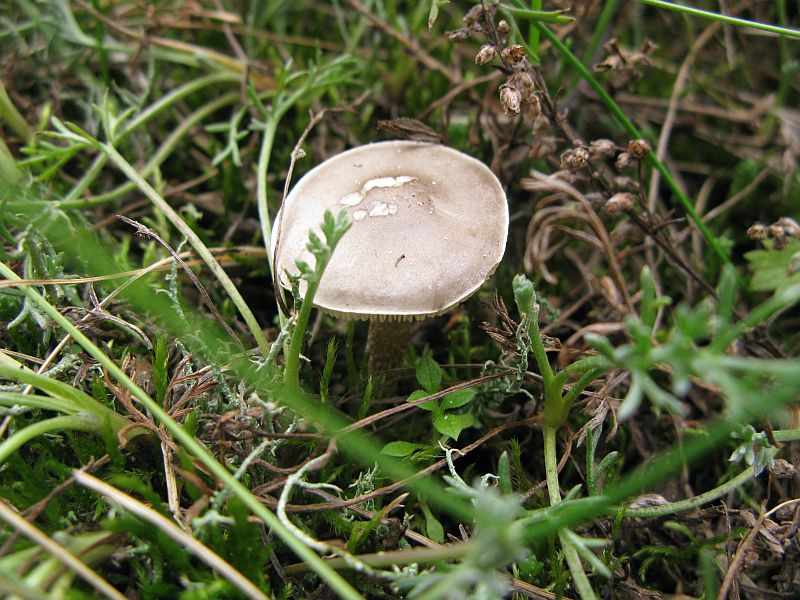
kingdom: Fungi
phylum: Basidiomycota
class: Agaricomycetes
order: Agaricales
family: Tricholomataceae
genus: Melanoleuca
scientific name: Melanoleuca oreina
